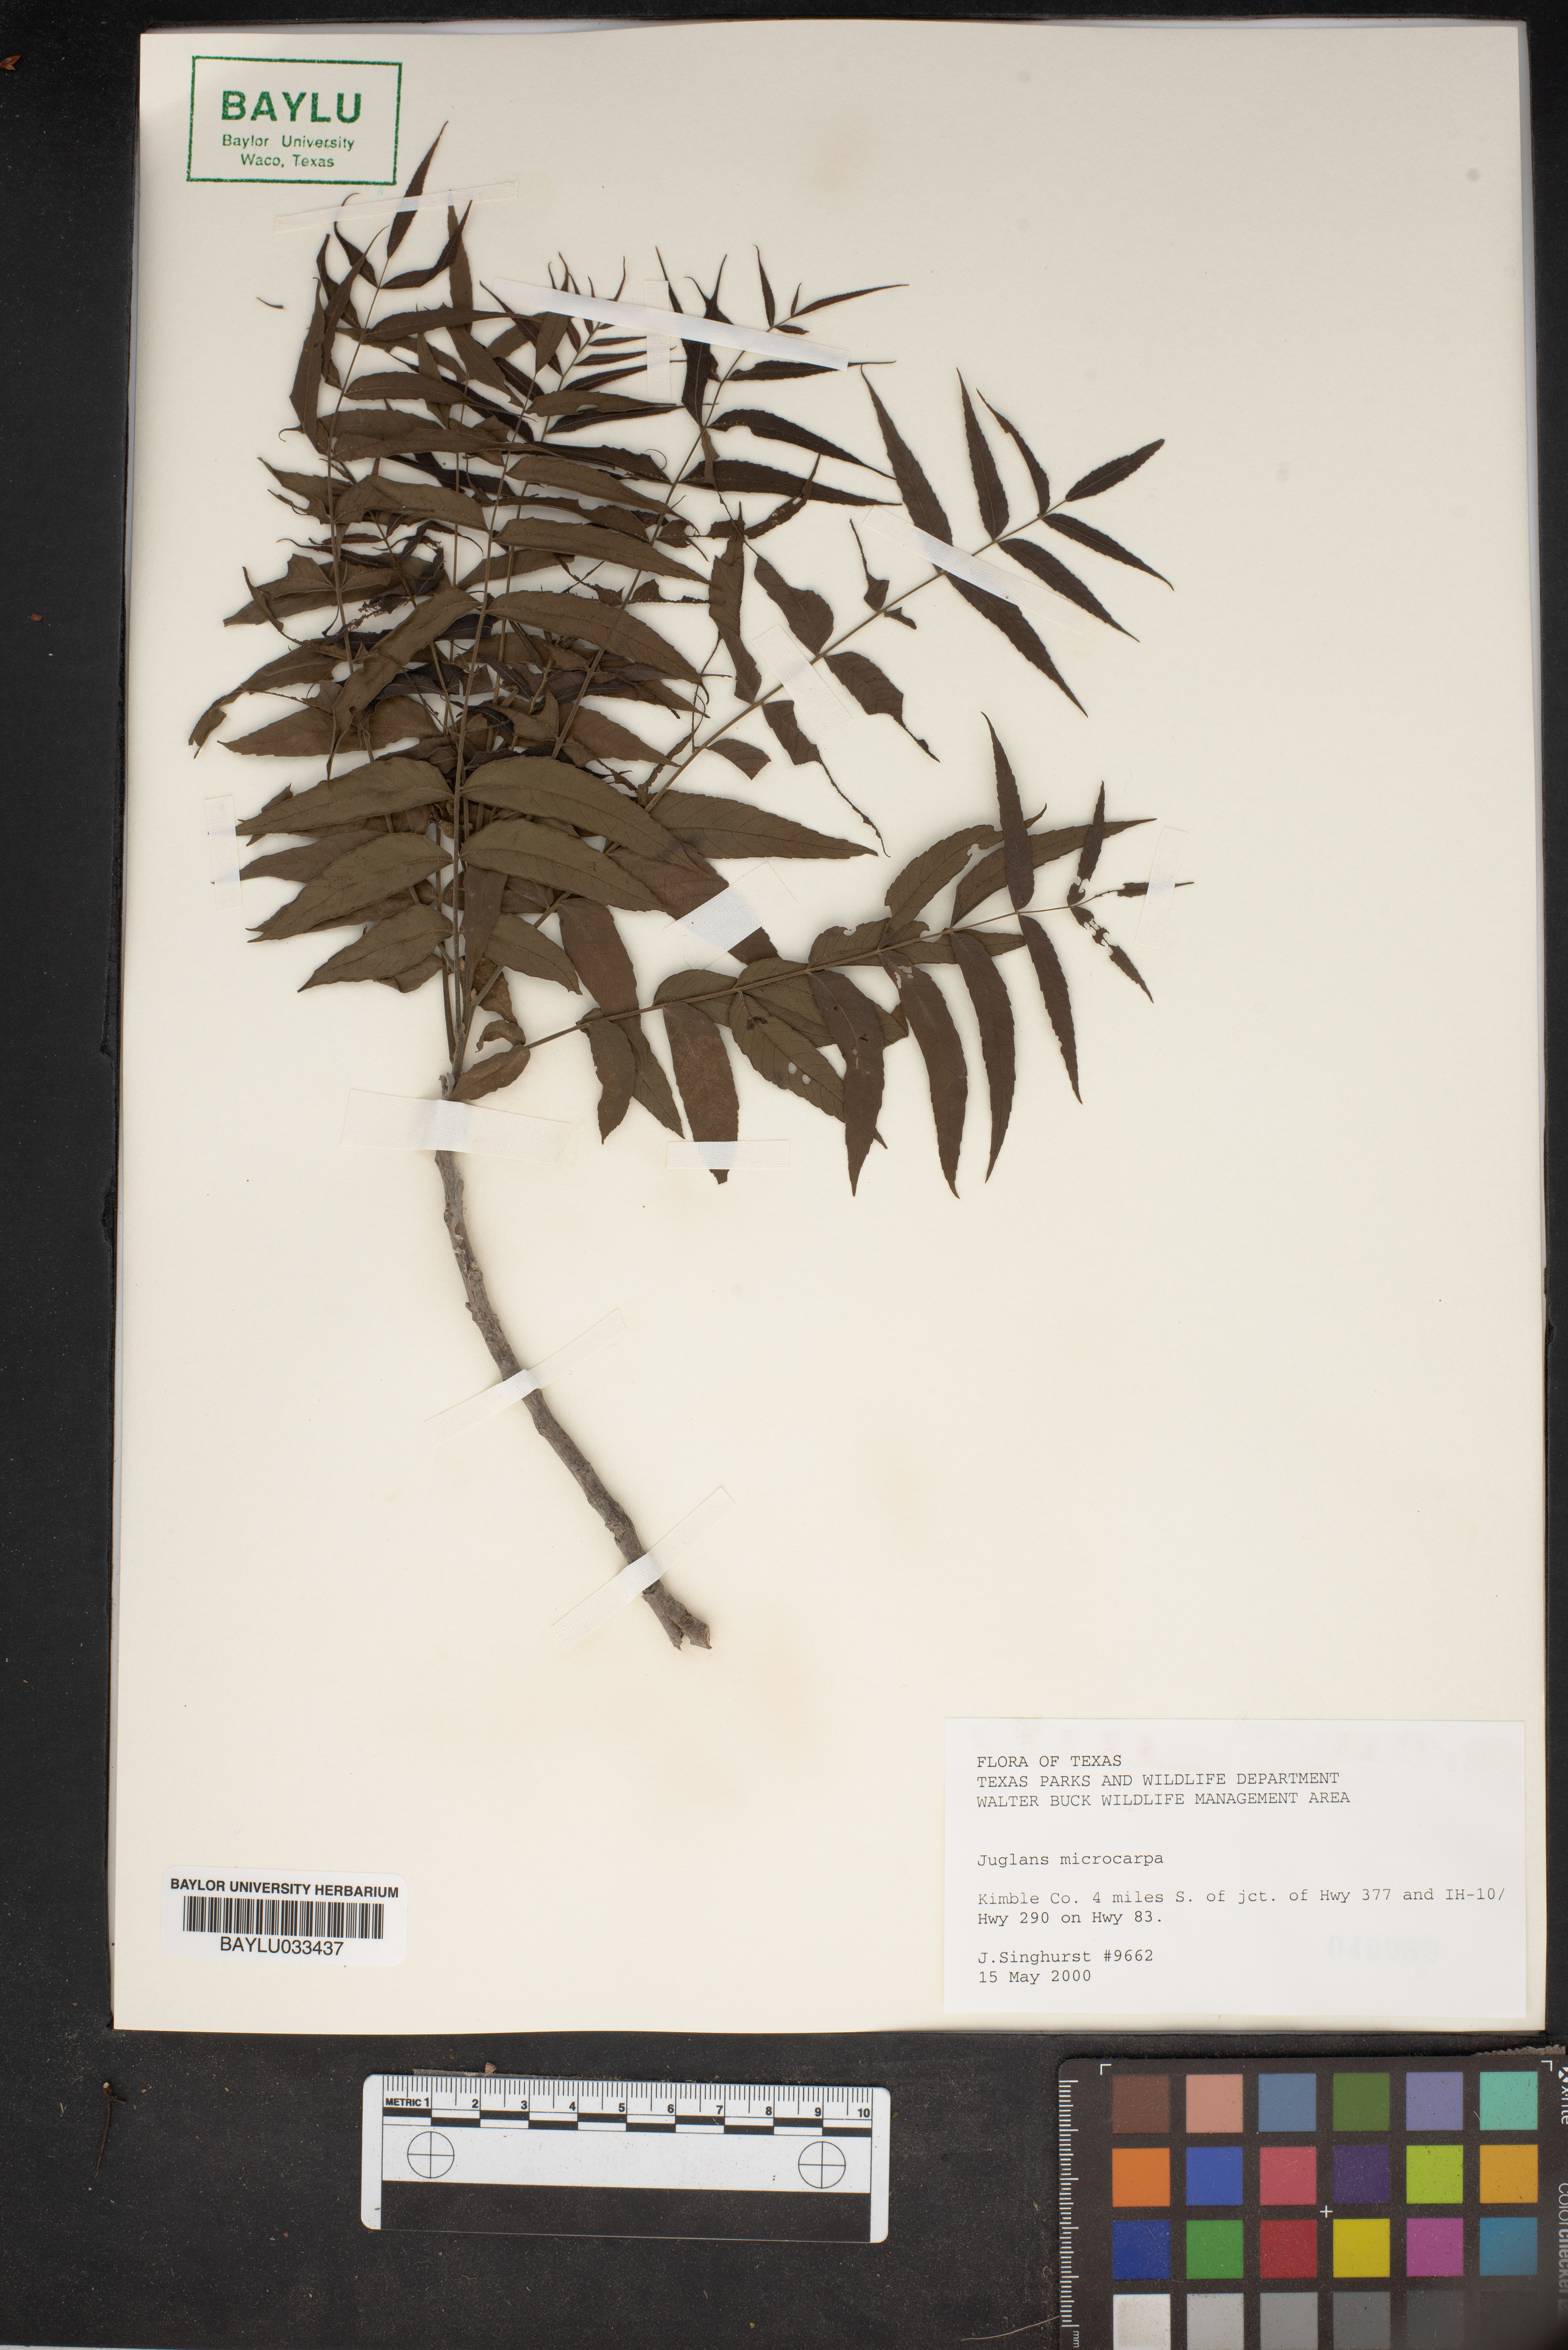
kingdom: Plantae
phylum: Tracheophyta
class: Magnoliopsida
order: Fagales
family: Juglandaceae
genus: Juglans
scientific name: Juglans microcarpa
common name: Texas walnut
